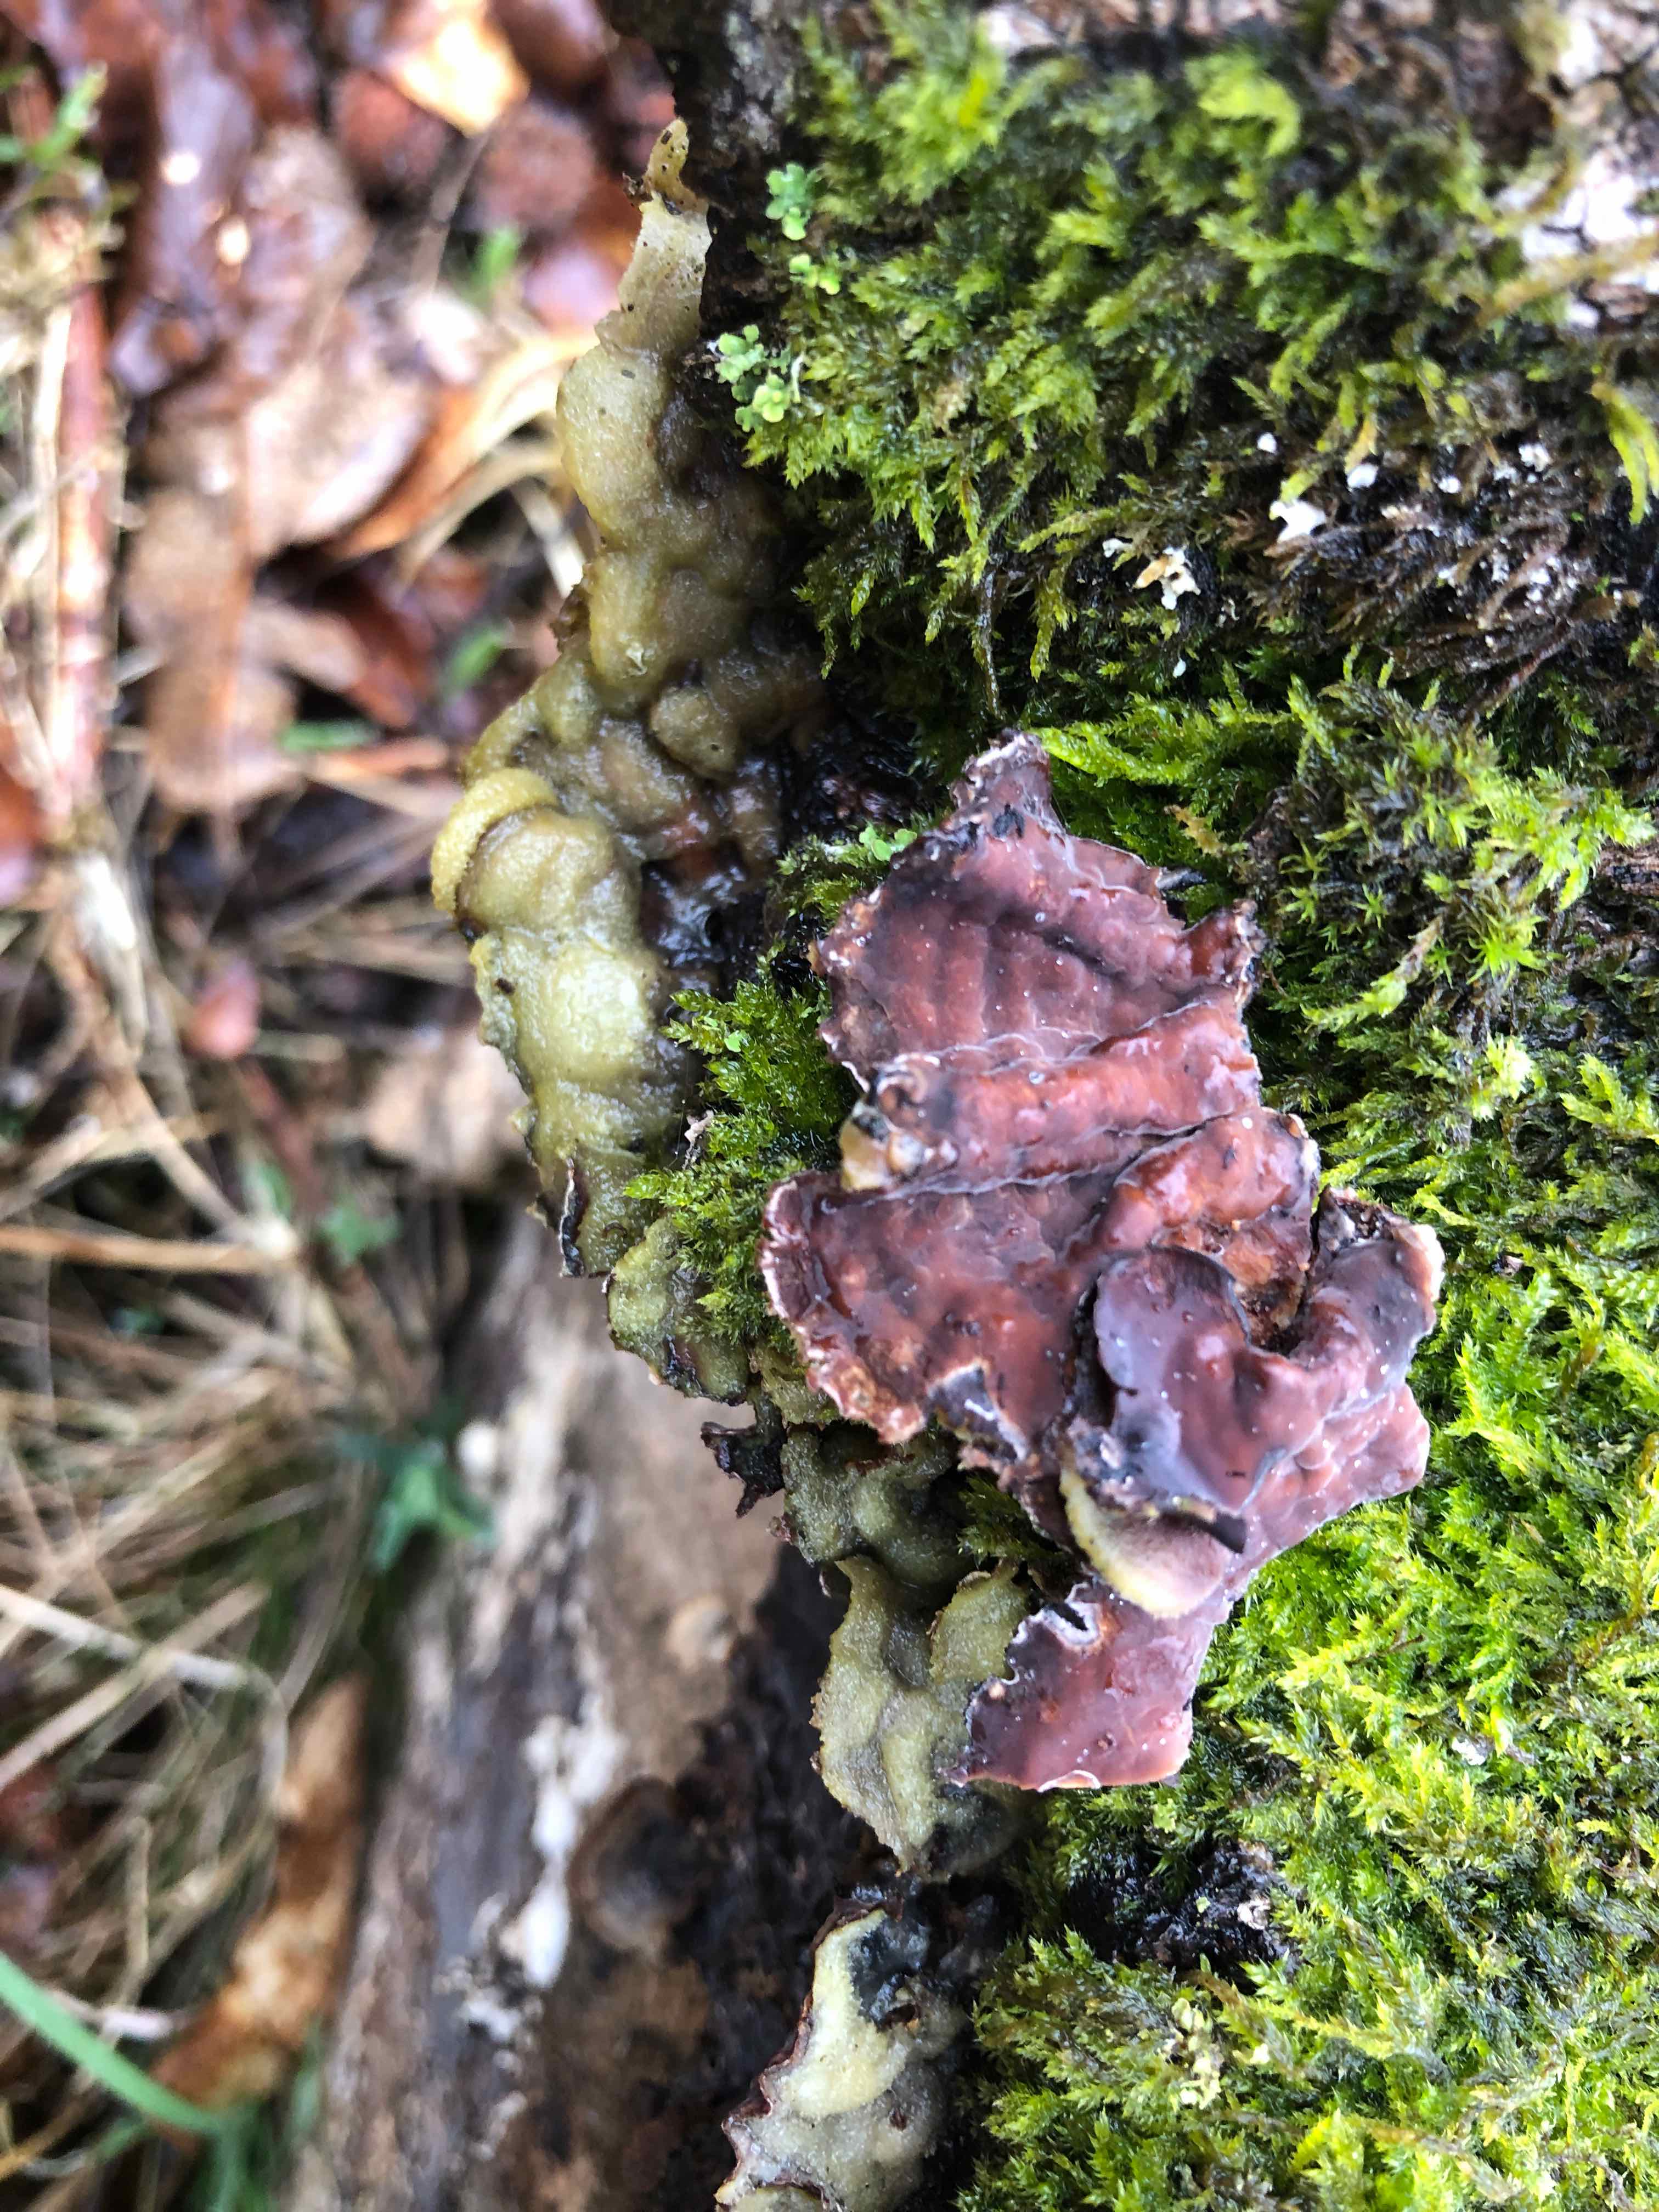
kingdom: Fungi
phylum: Basidiomycota
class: Agaricomycetes
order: Agaricales
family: Cyphellaceae
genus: Chondrostereum
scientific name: Chondrostereum purpureum
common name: purpurlædersvamp
